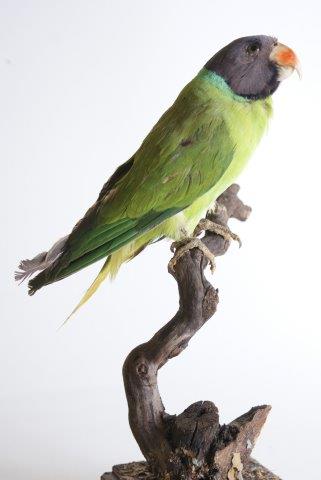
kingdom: Animalia
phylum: Chordata
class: Aves
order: Psittaciformes
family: Psittacidae
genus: Psittacula
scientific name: Psittacula himalayana
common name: Slaty-headed parakeet
